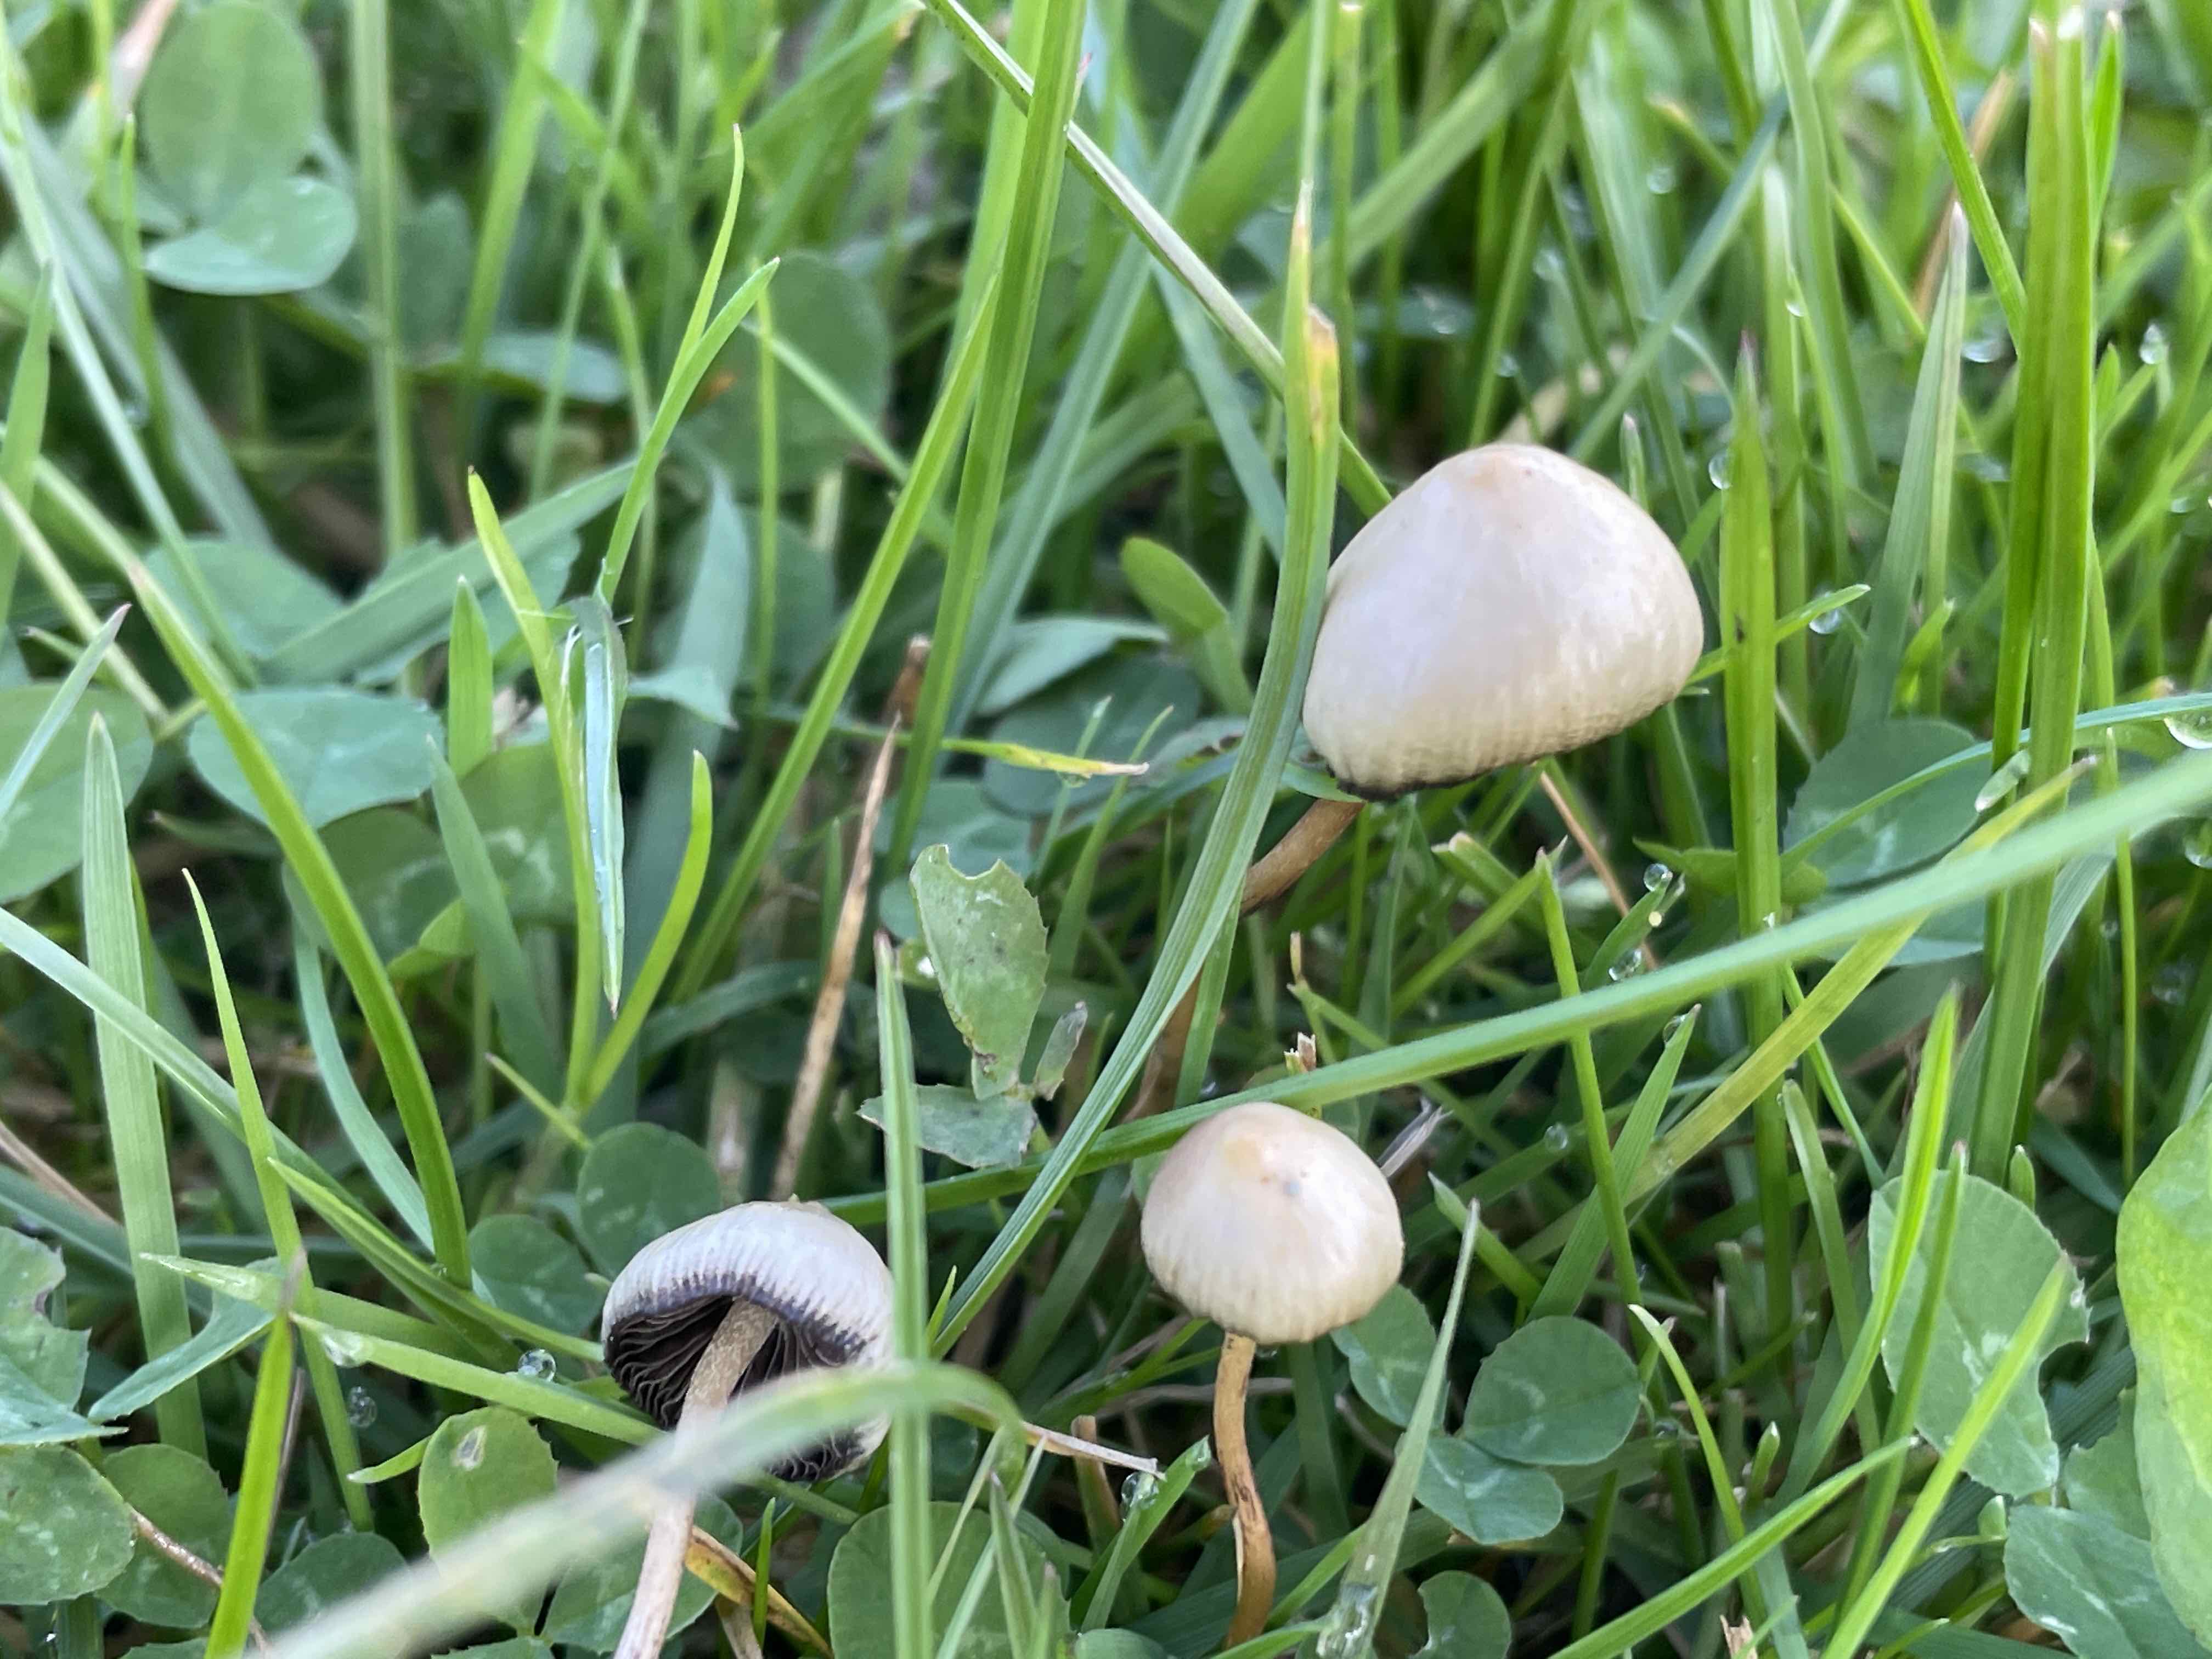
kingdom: Fungi
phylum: Basidiomycota
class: Agaricomycetes
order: Agaricales
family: Hymenogastraceae
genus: Psilocybe
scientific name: Psilocybe semilanceata
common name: spids nøgenhat
